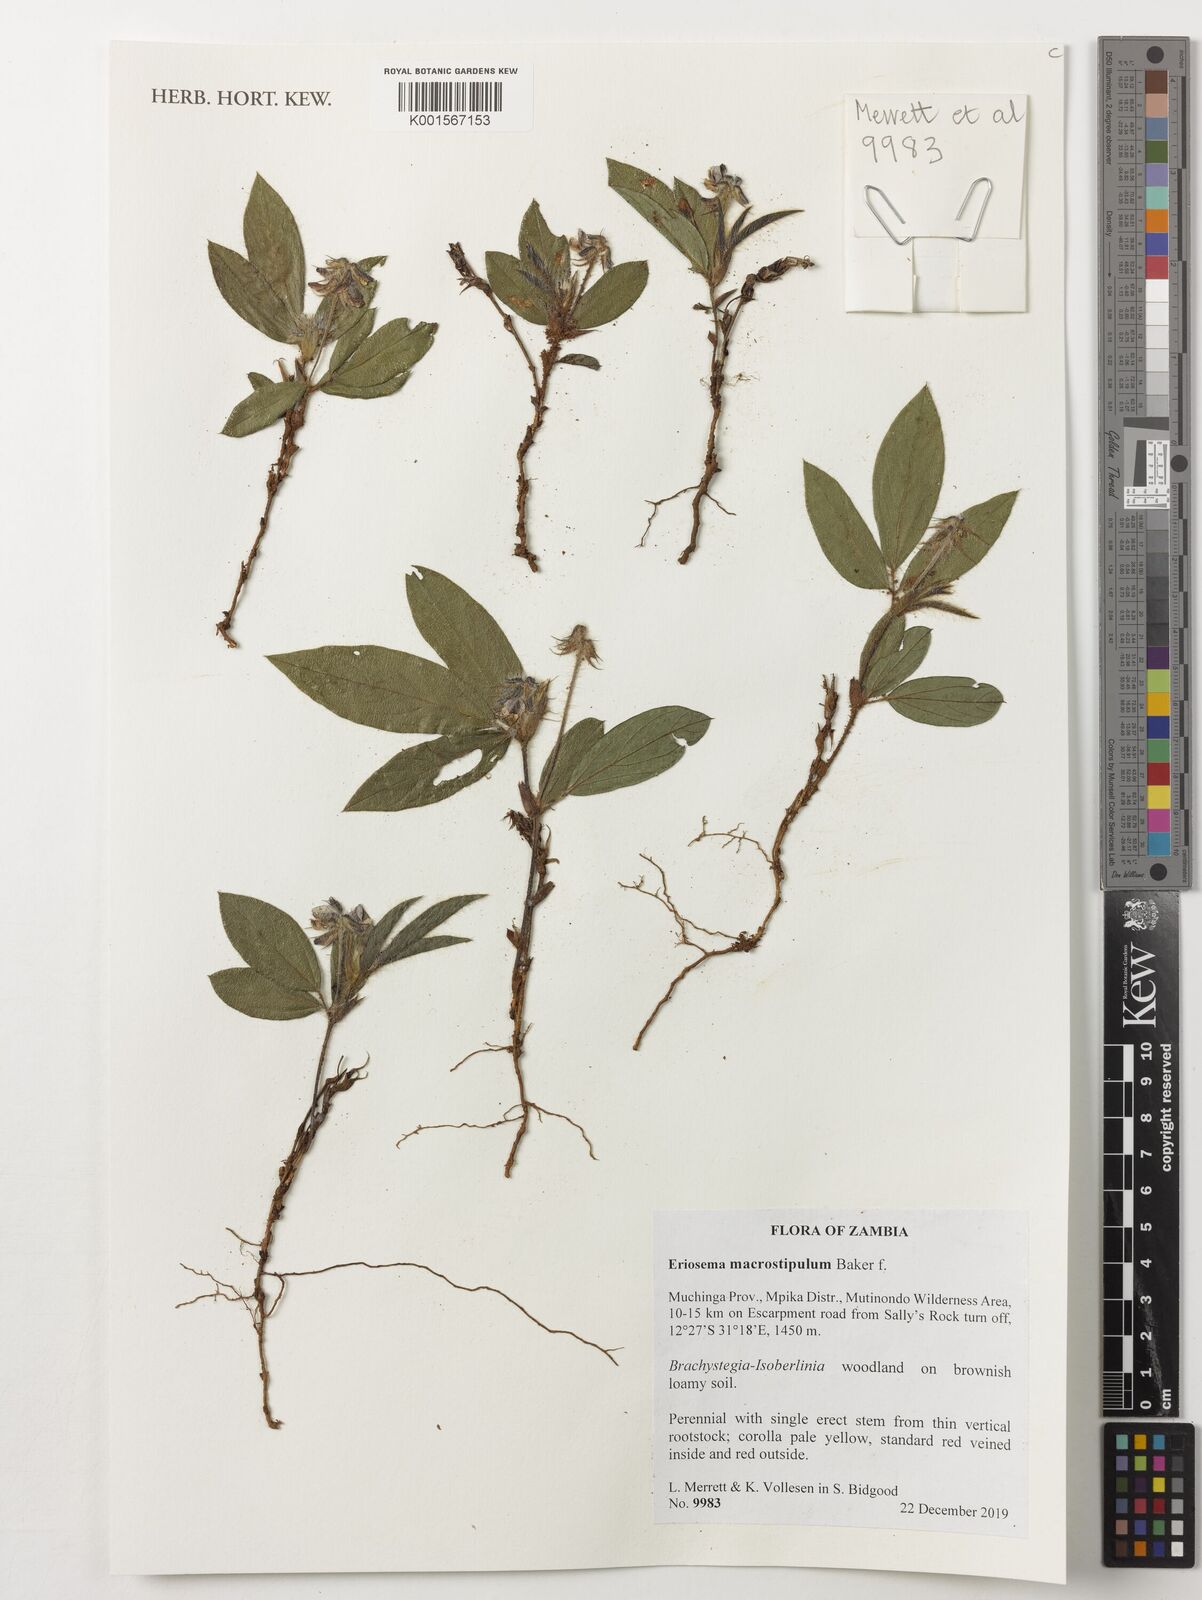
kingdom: Plantae
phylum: Tracheophyta
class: Magnoliopsida
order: Fabales
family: Fabaceae
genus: Eriosema
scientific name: Eriosema macrostipulum
